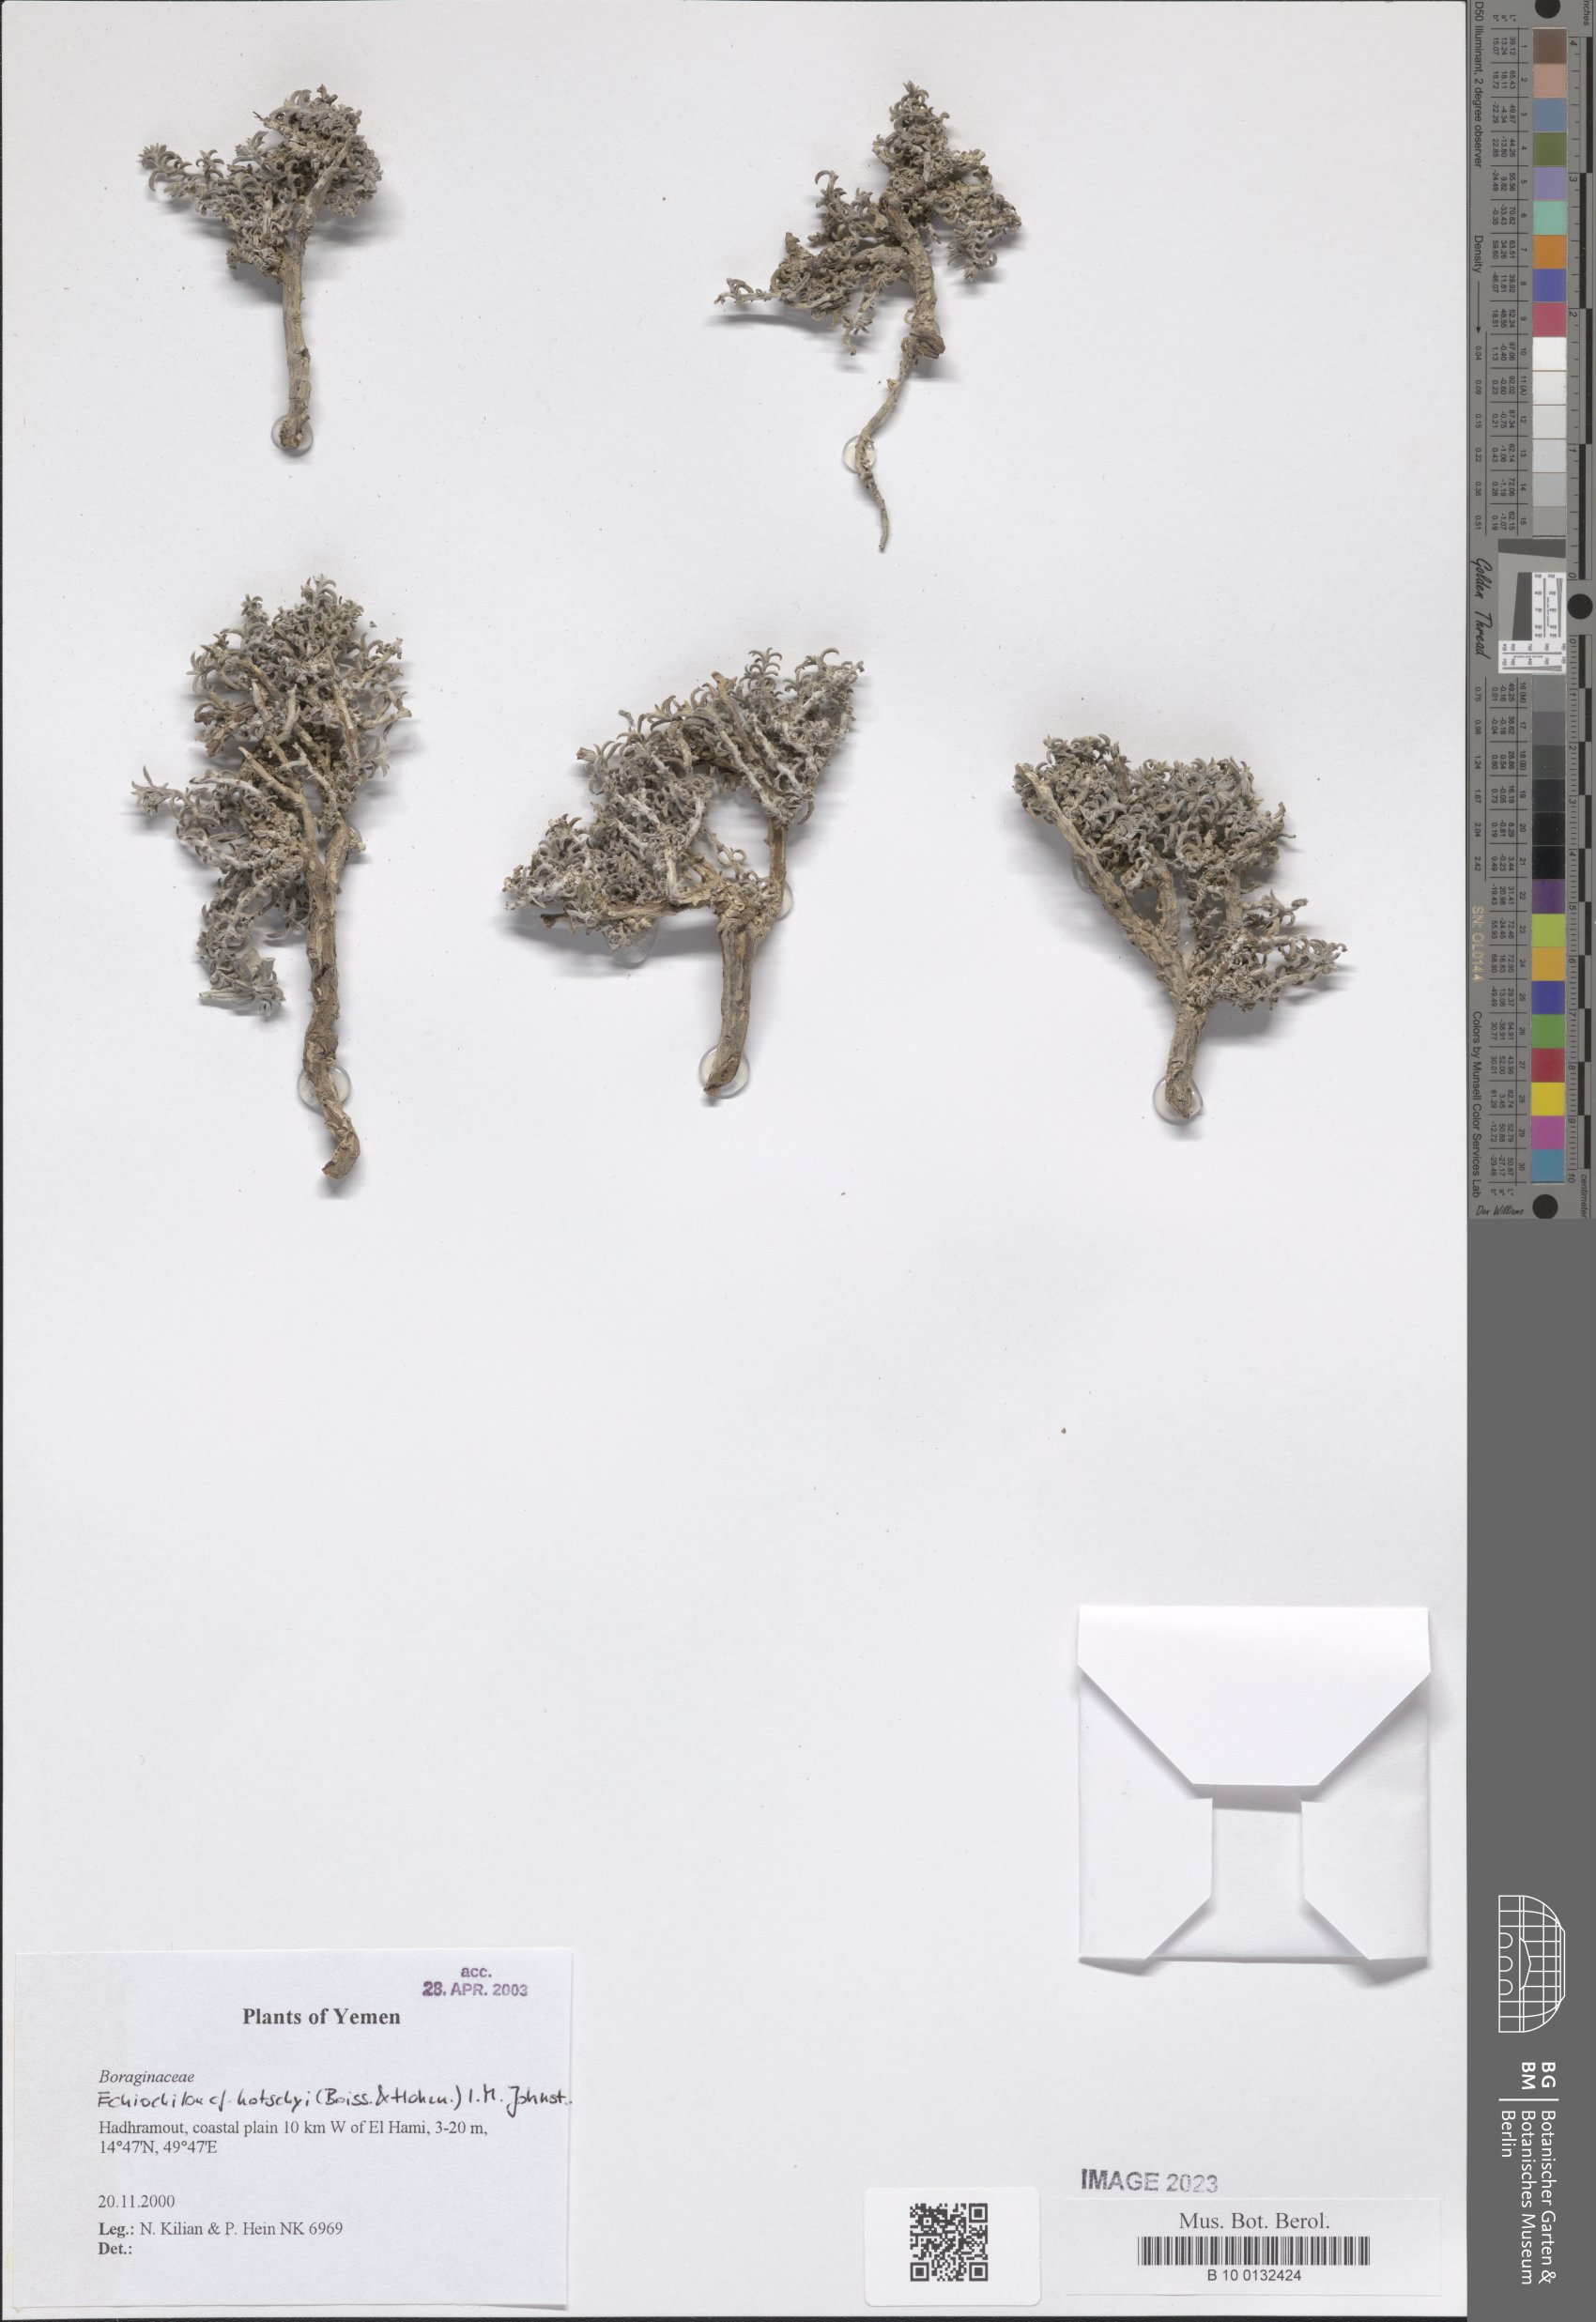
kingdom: Plantae
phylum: Tracheophyta
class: Magnoliopsida
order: Boraginales
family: Boraginaceae
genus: Echiochilon
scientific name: Echiochilon kotschyi
